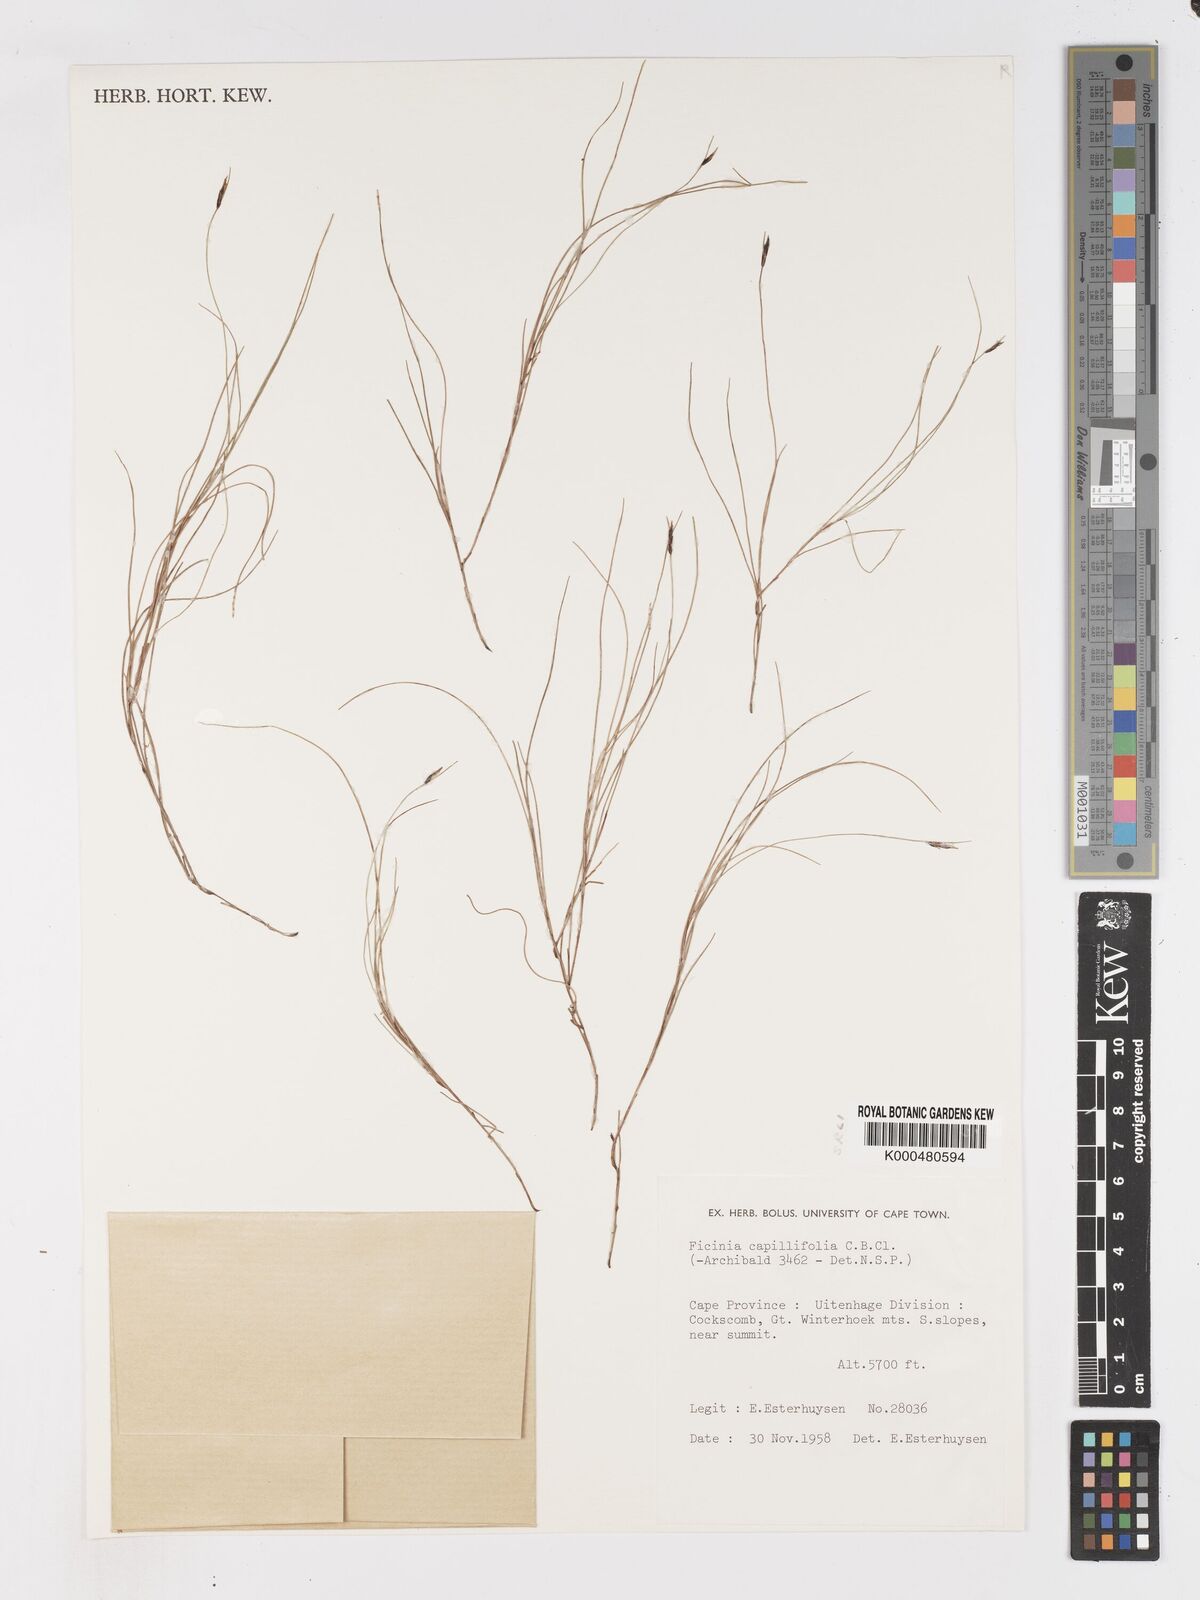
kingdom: Plantae
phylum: Tracheophyta
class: Liliopsida
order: Poales
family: Cyperaceae
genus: Ficinia
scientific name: Ficinia capillifolia
